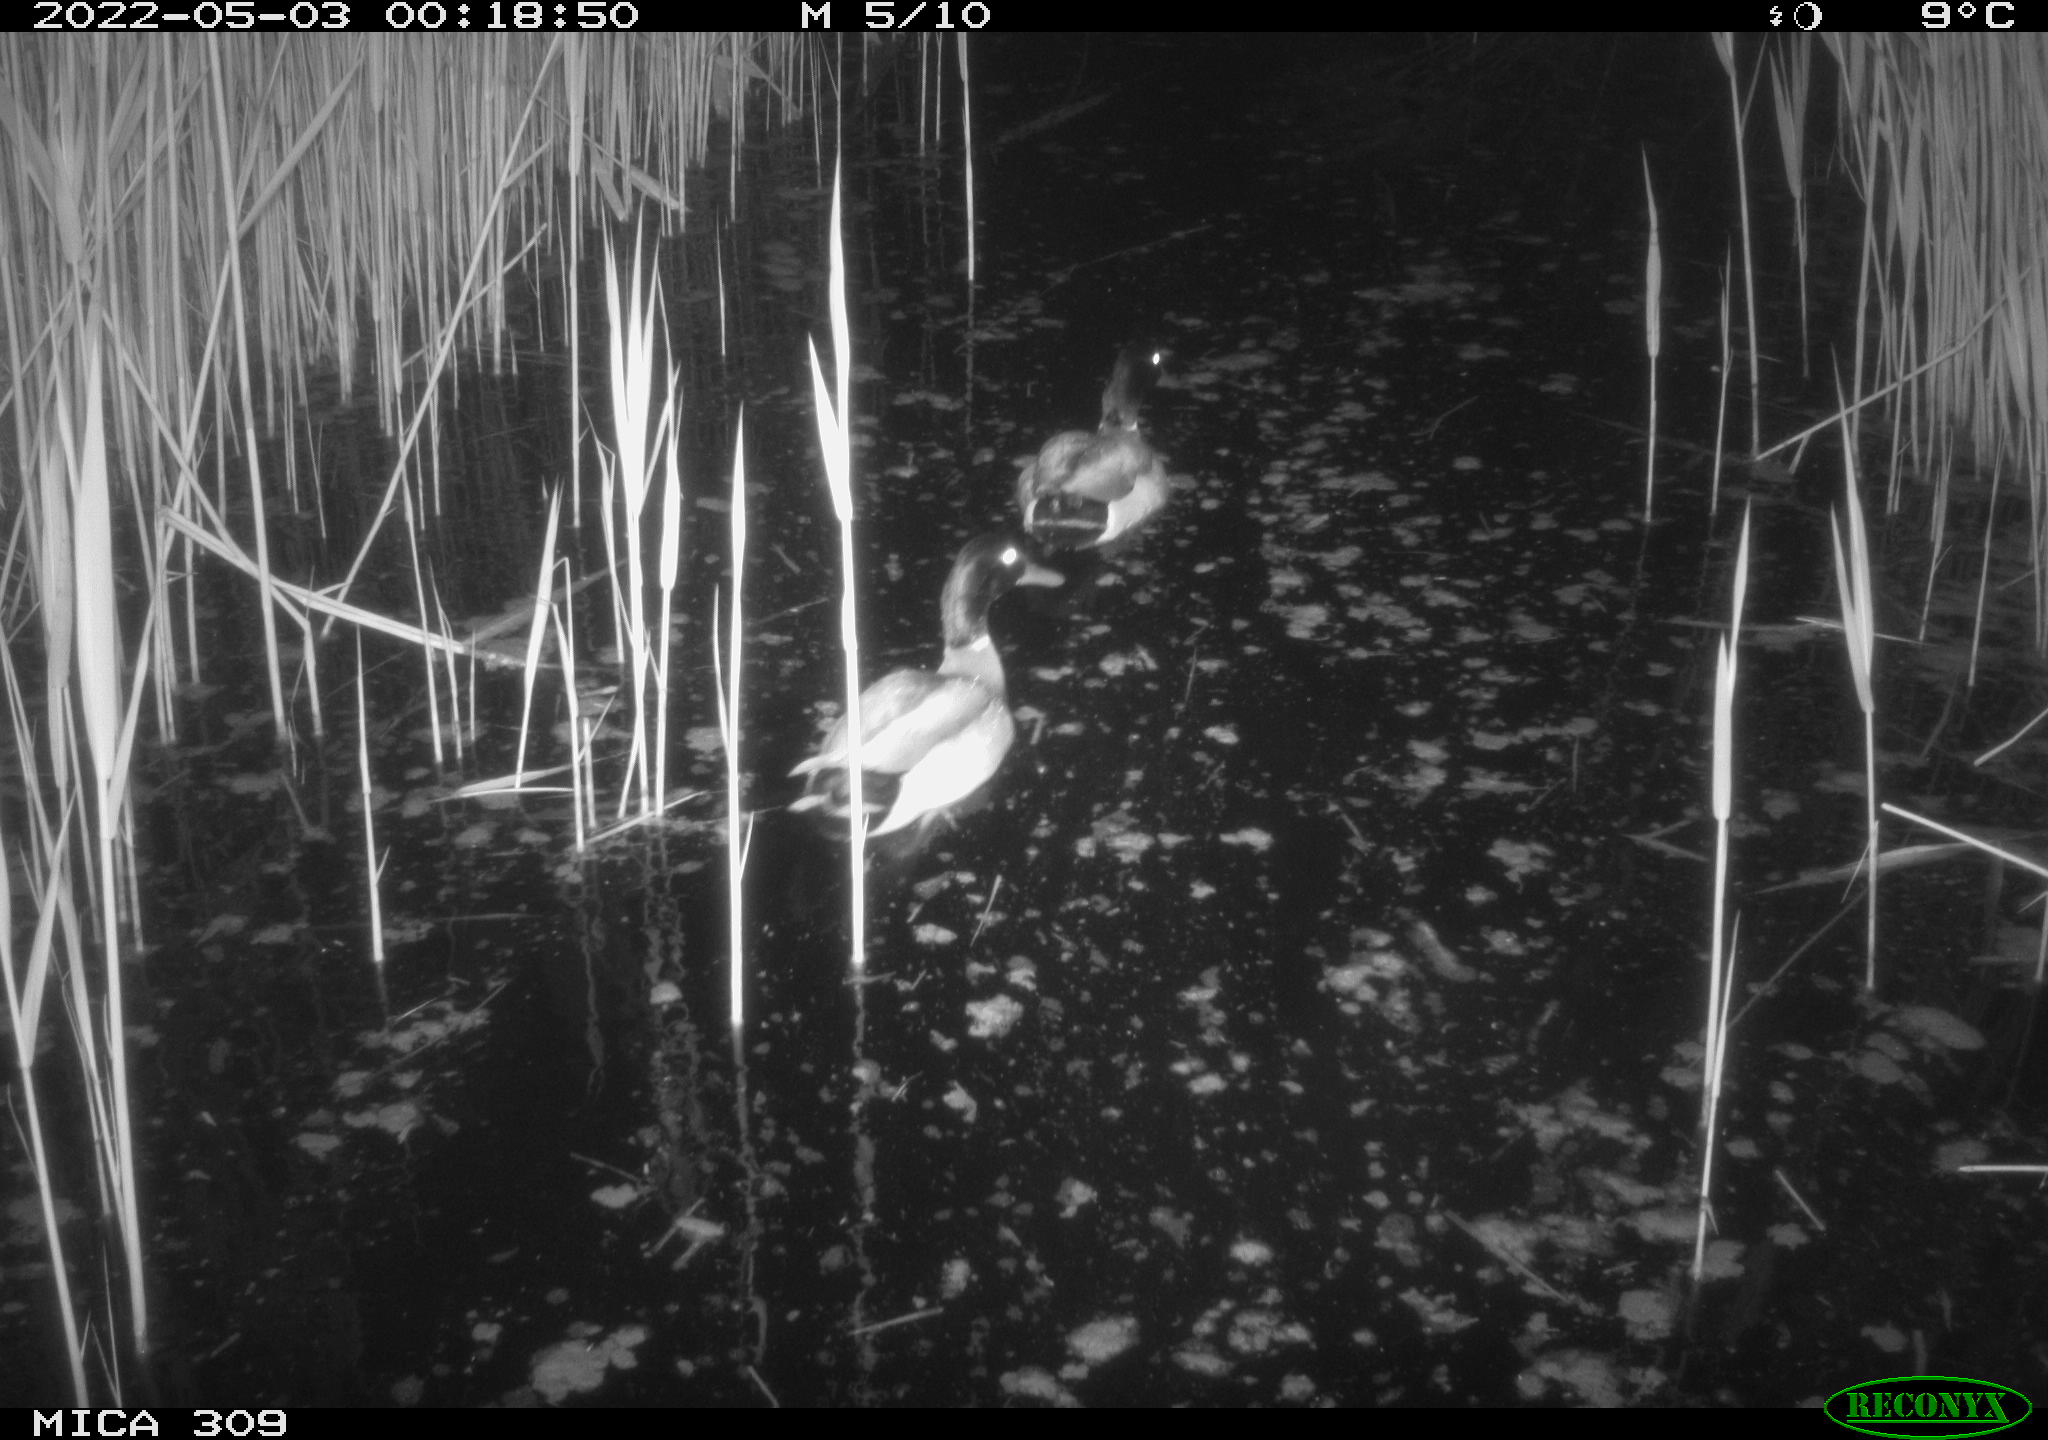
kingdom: Animalia
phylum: Chordata
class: Aves
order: Anseriformes
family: Anatidae
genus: Anas
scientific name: Anas platyrhynchos
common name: Mallard
